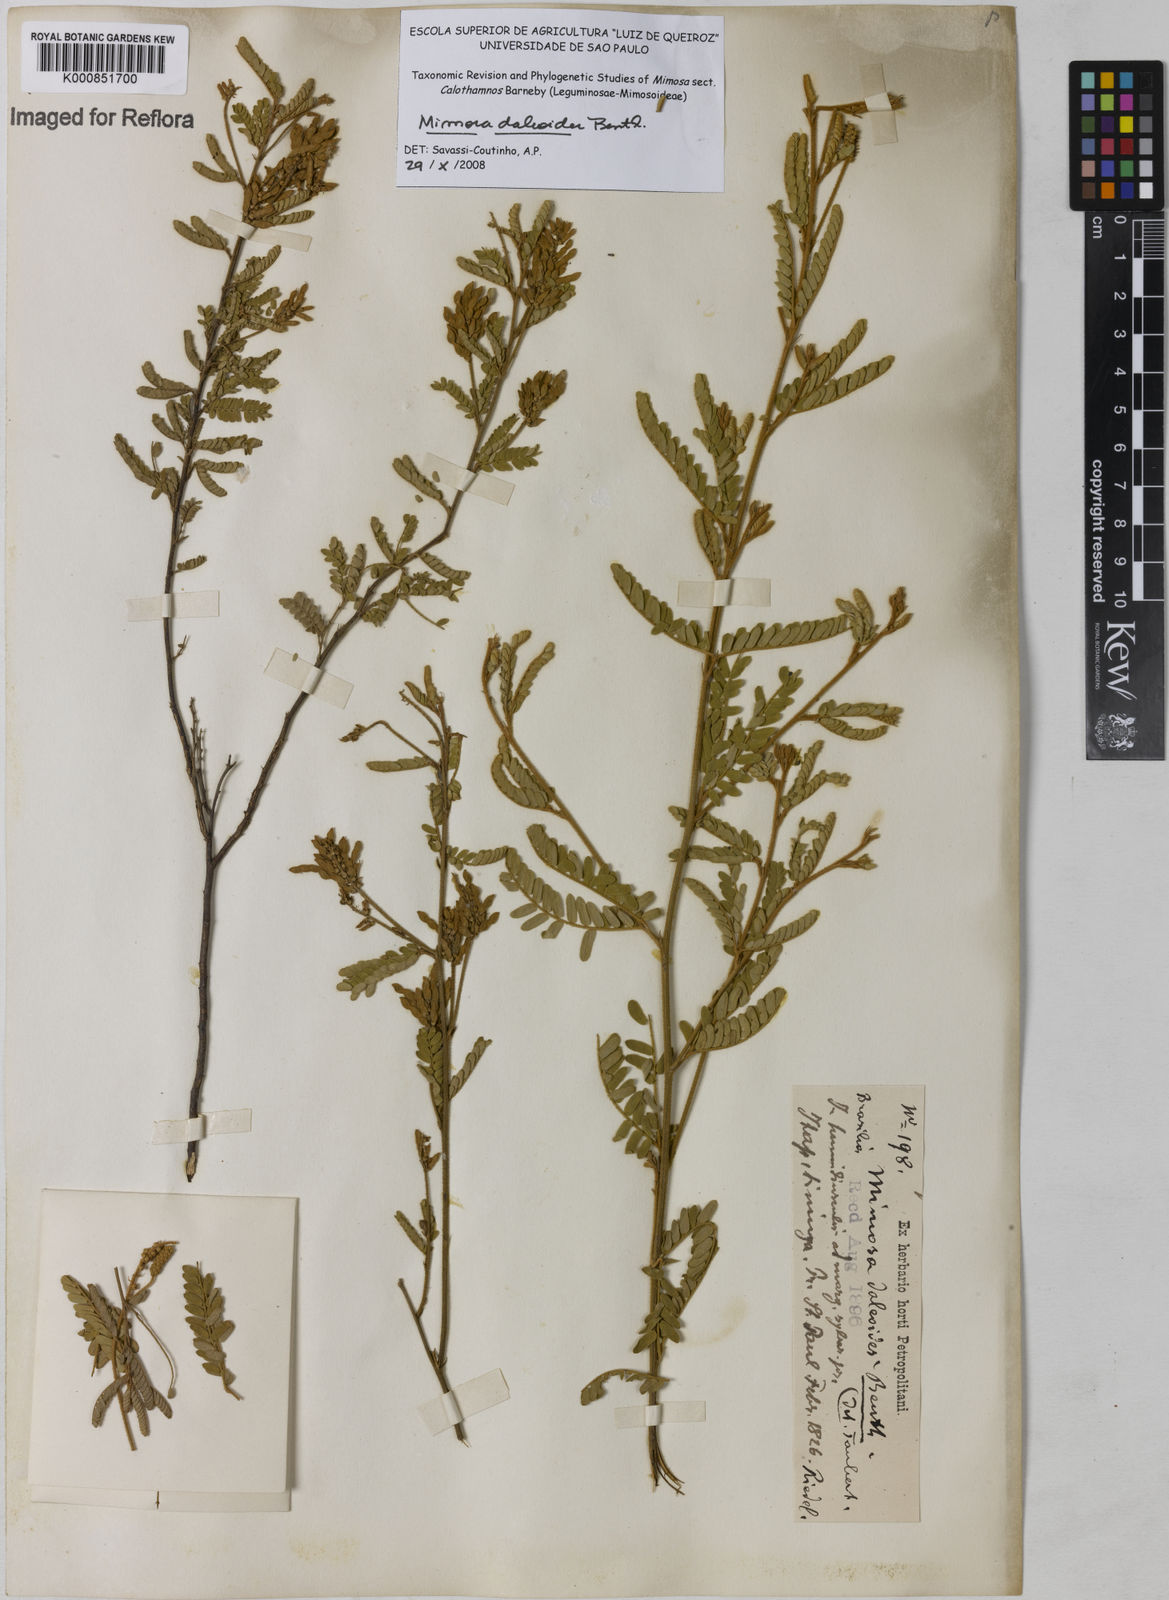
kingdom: Plantae
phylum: Tracheophyta
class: Magnoliopsida
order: Fabales
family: Fabaceae
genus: Mimosa
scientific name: Mimosa daleoides
